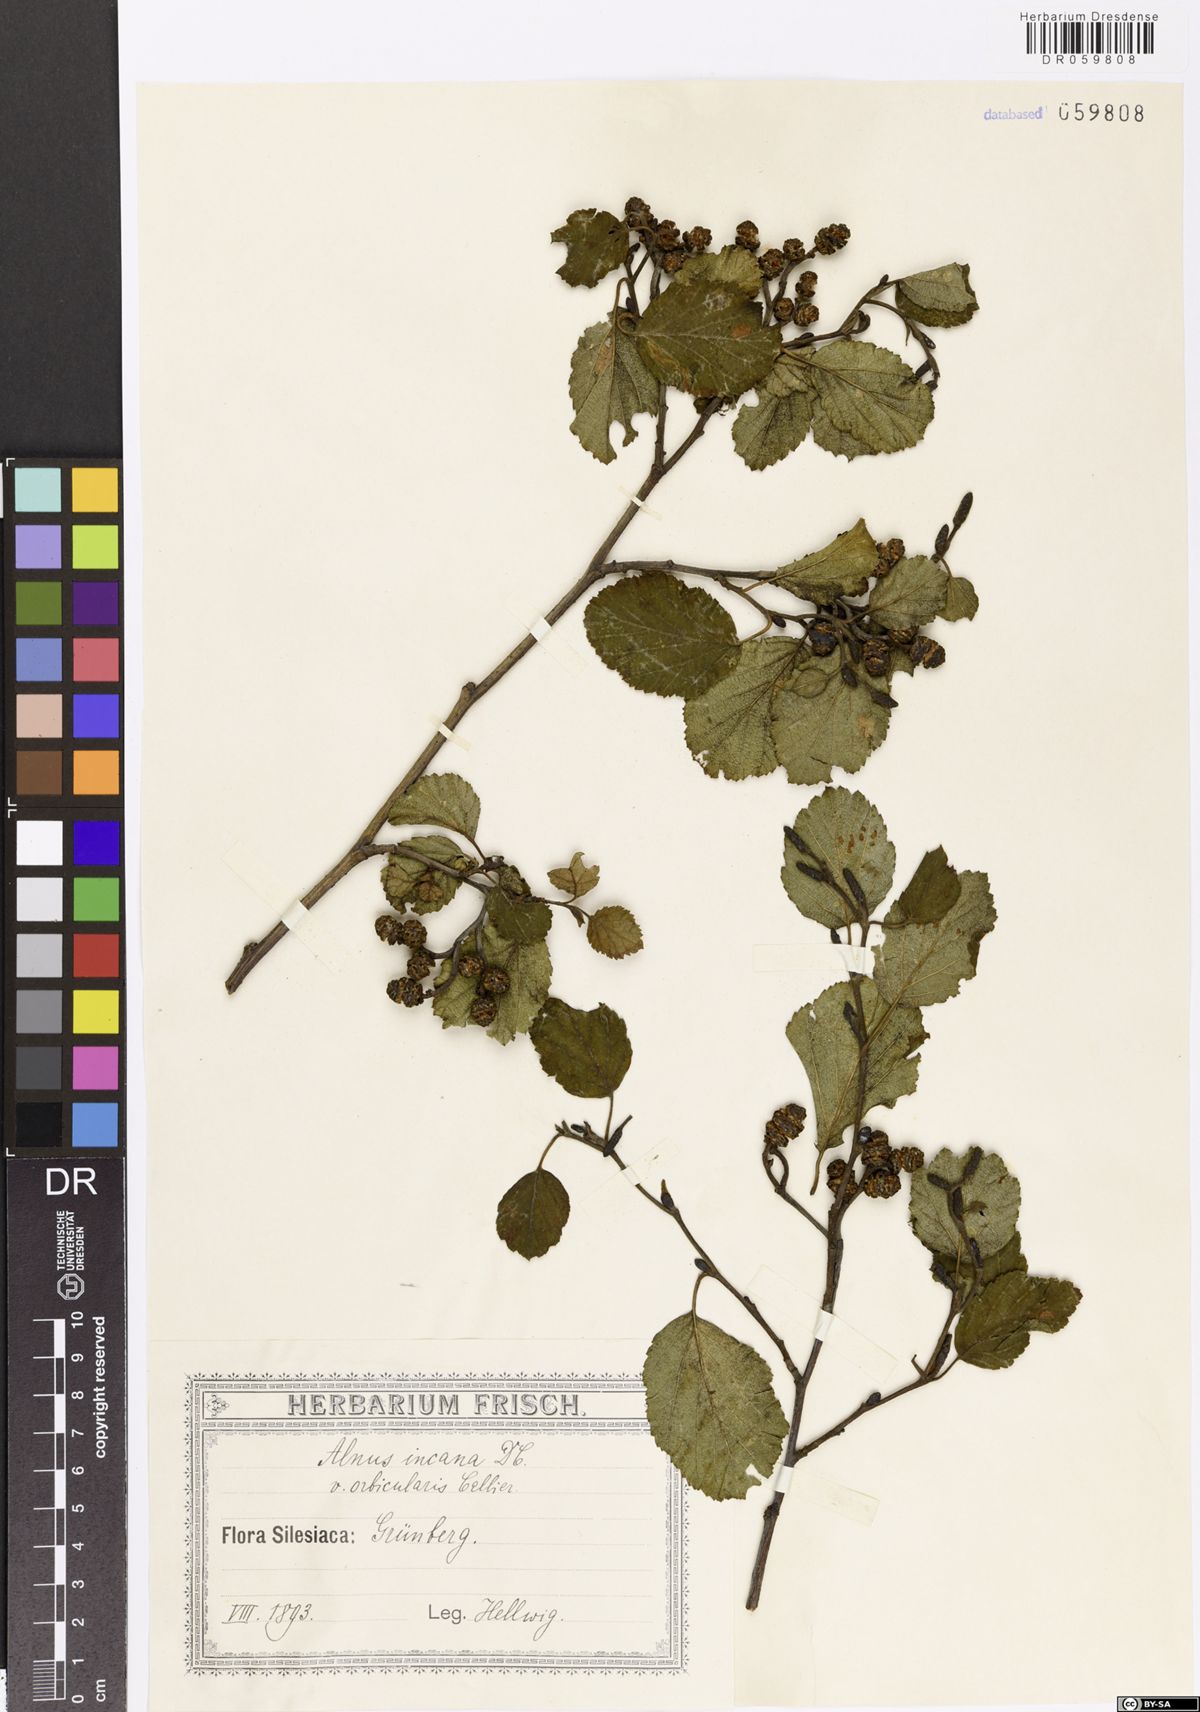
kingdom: Plantae
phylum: Tracheophyta
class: Magnoliopsida
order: Fagales
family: Betulaceae
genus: Alnus
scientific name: Alnus incana
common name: Grey alder
